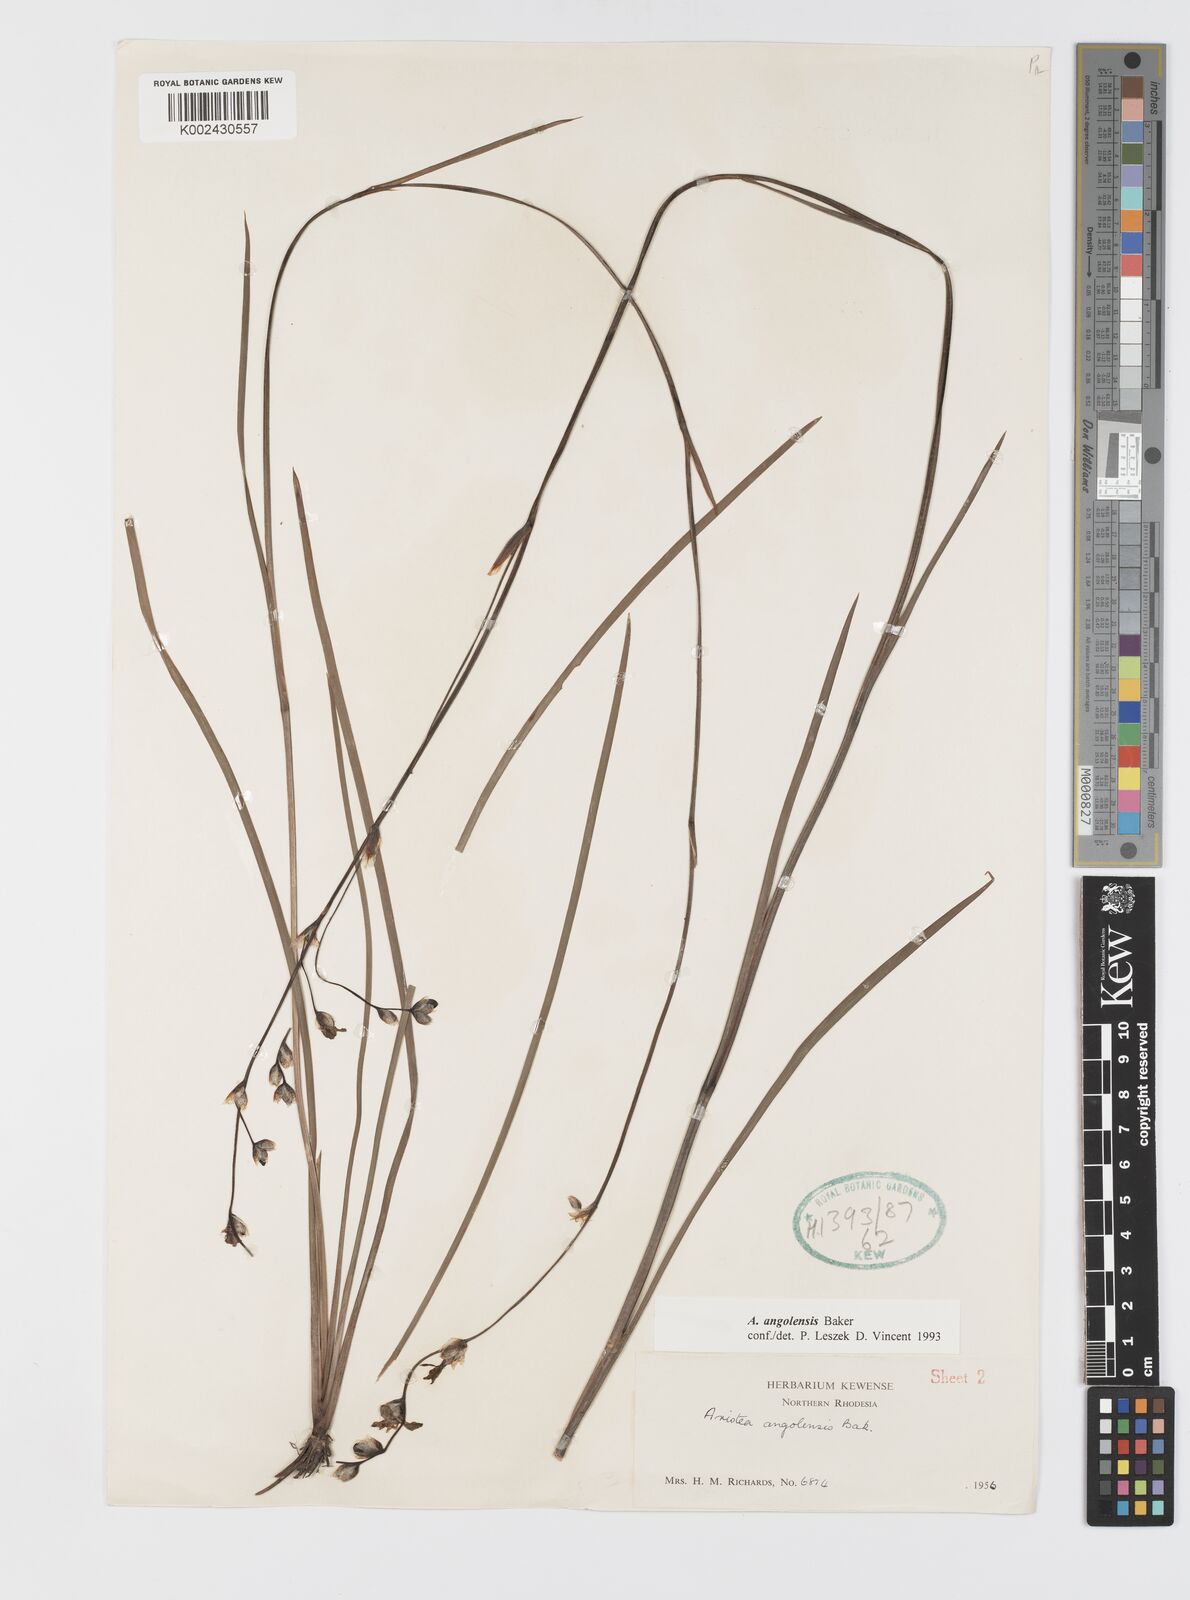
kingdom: Plantae
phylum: Tracheophyta
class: Liliopsida
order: Asparagales
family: Iridaceae
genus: Aristea
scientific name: Aristea angolensis
